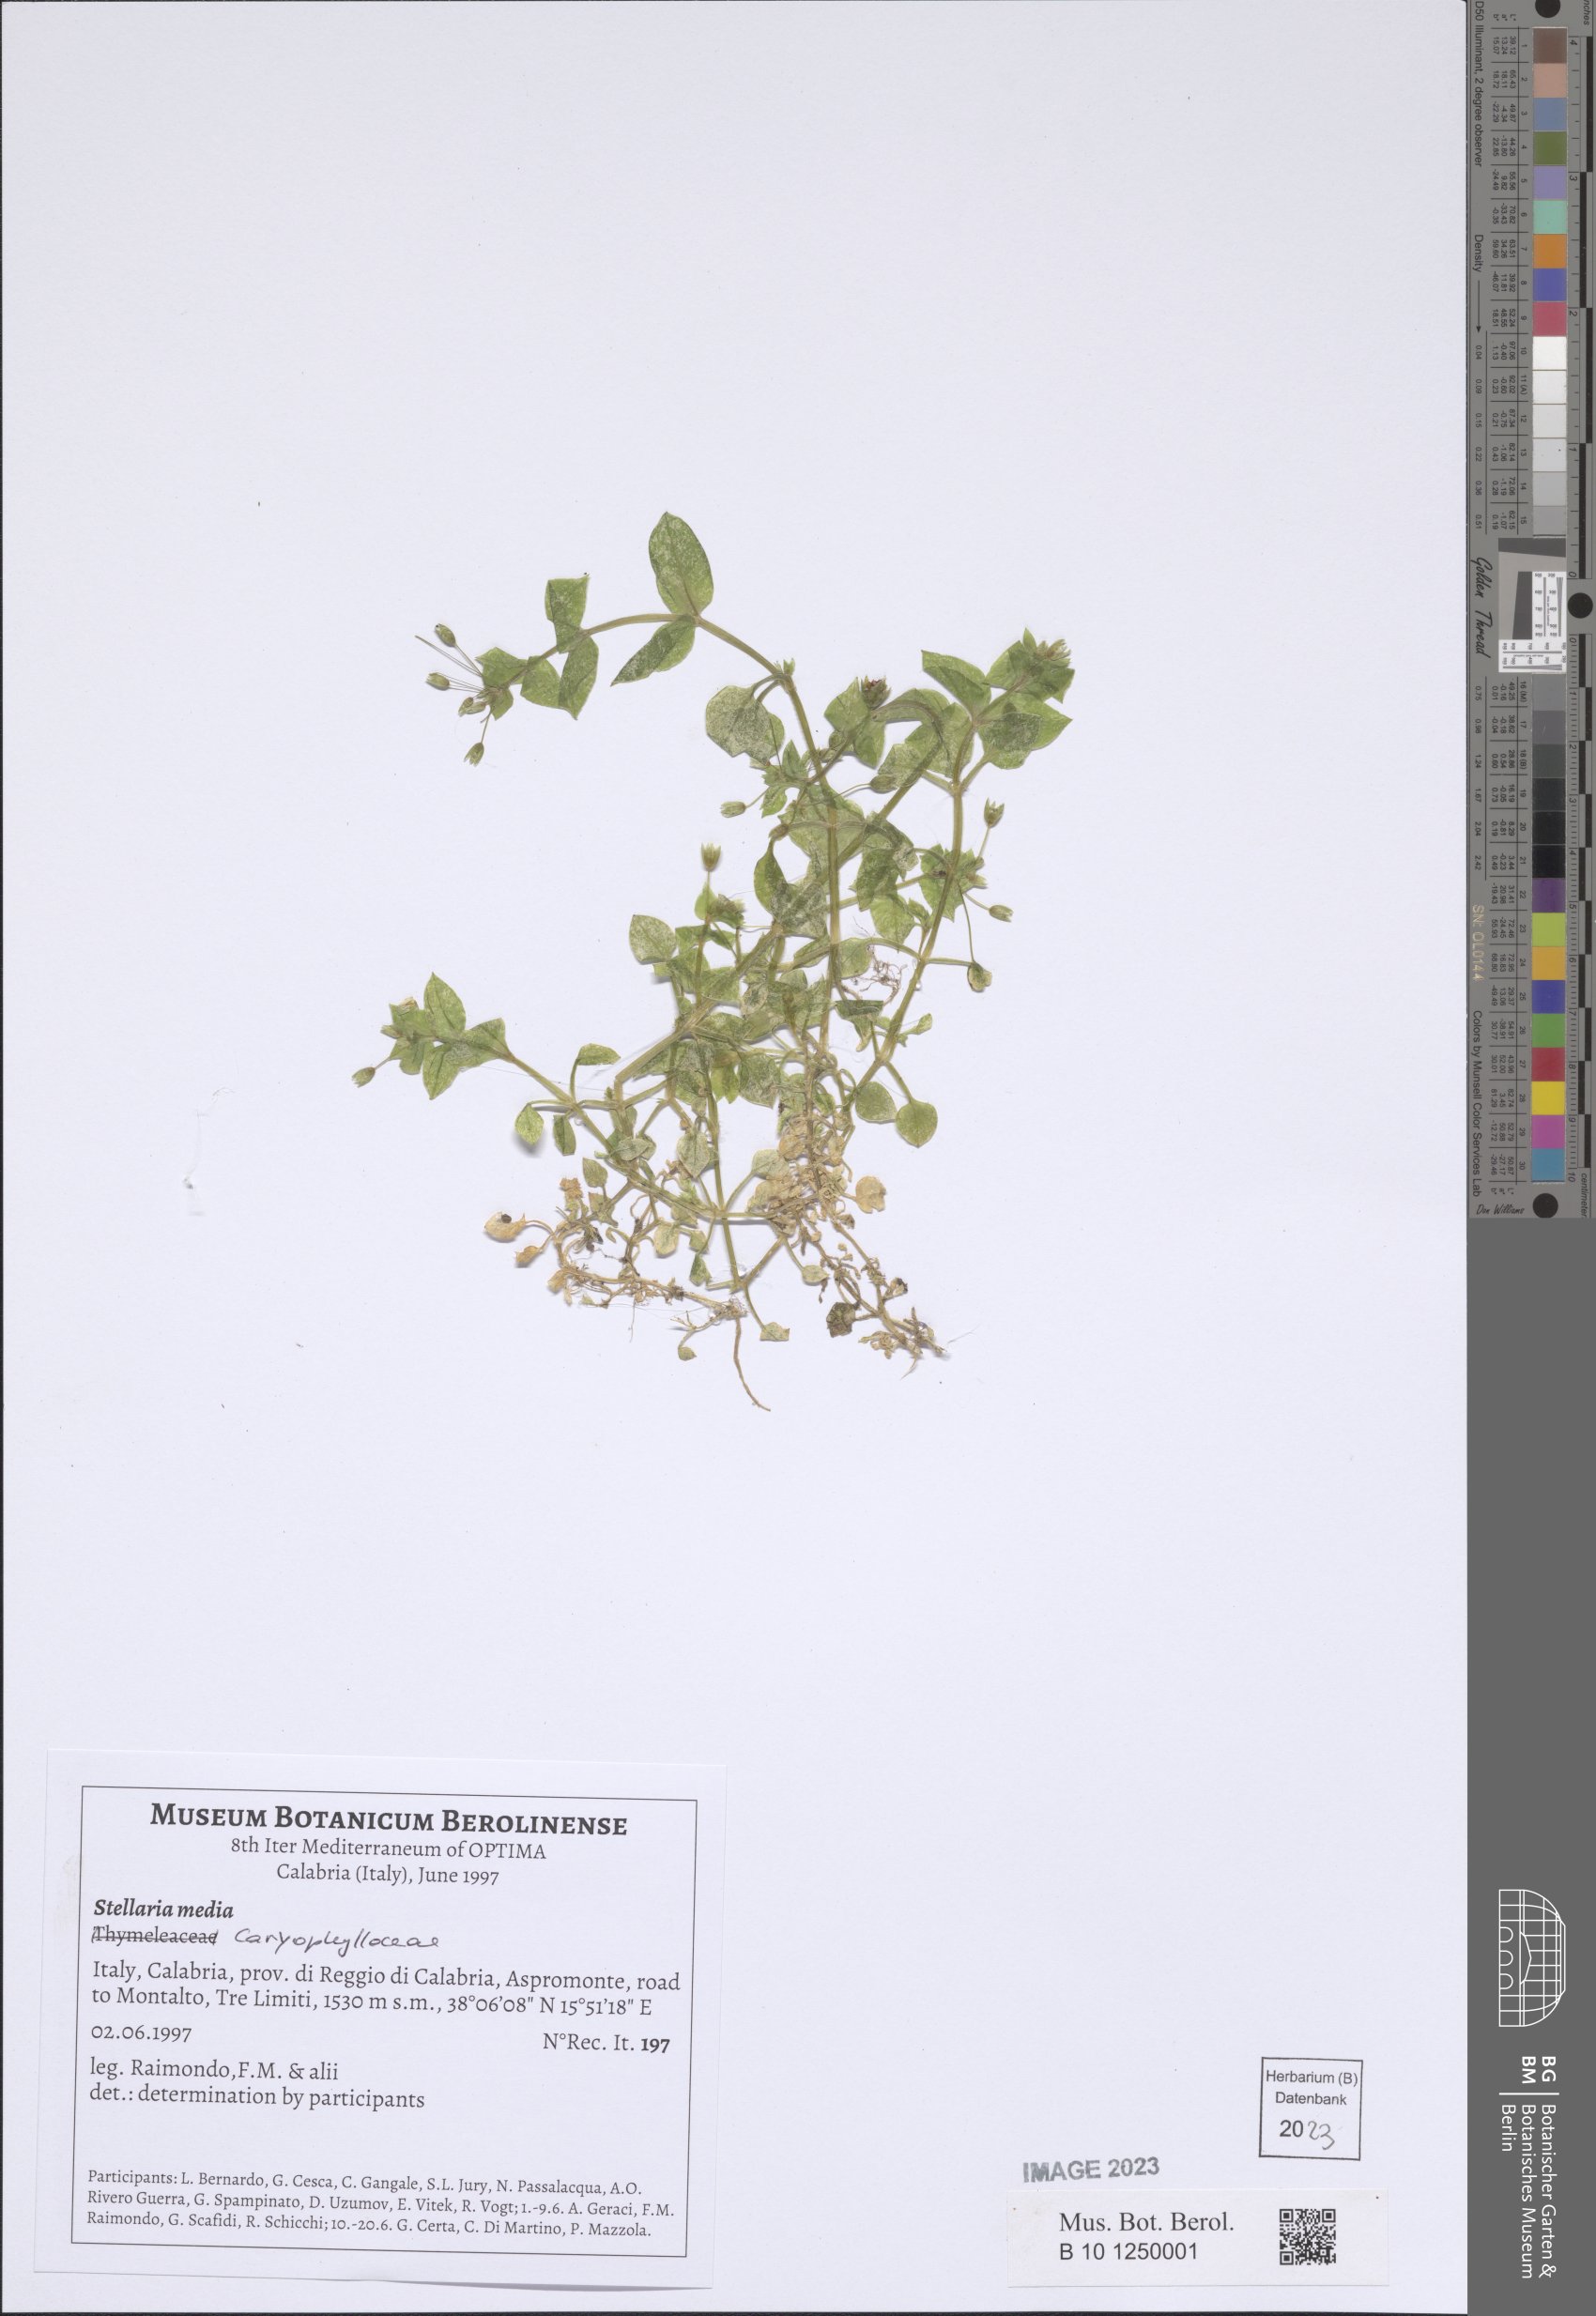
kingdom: Plantae
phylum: Tracheophyta
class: Magnoliopsida
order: Caryophyllales
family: Caryophyllaceae
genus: Stellaria
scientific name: Stellaria media
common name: Common chickweed
